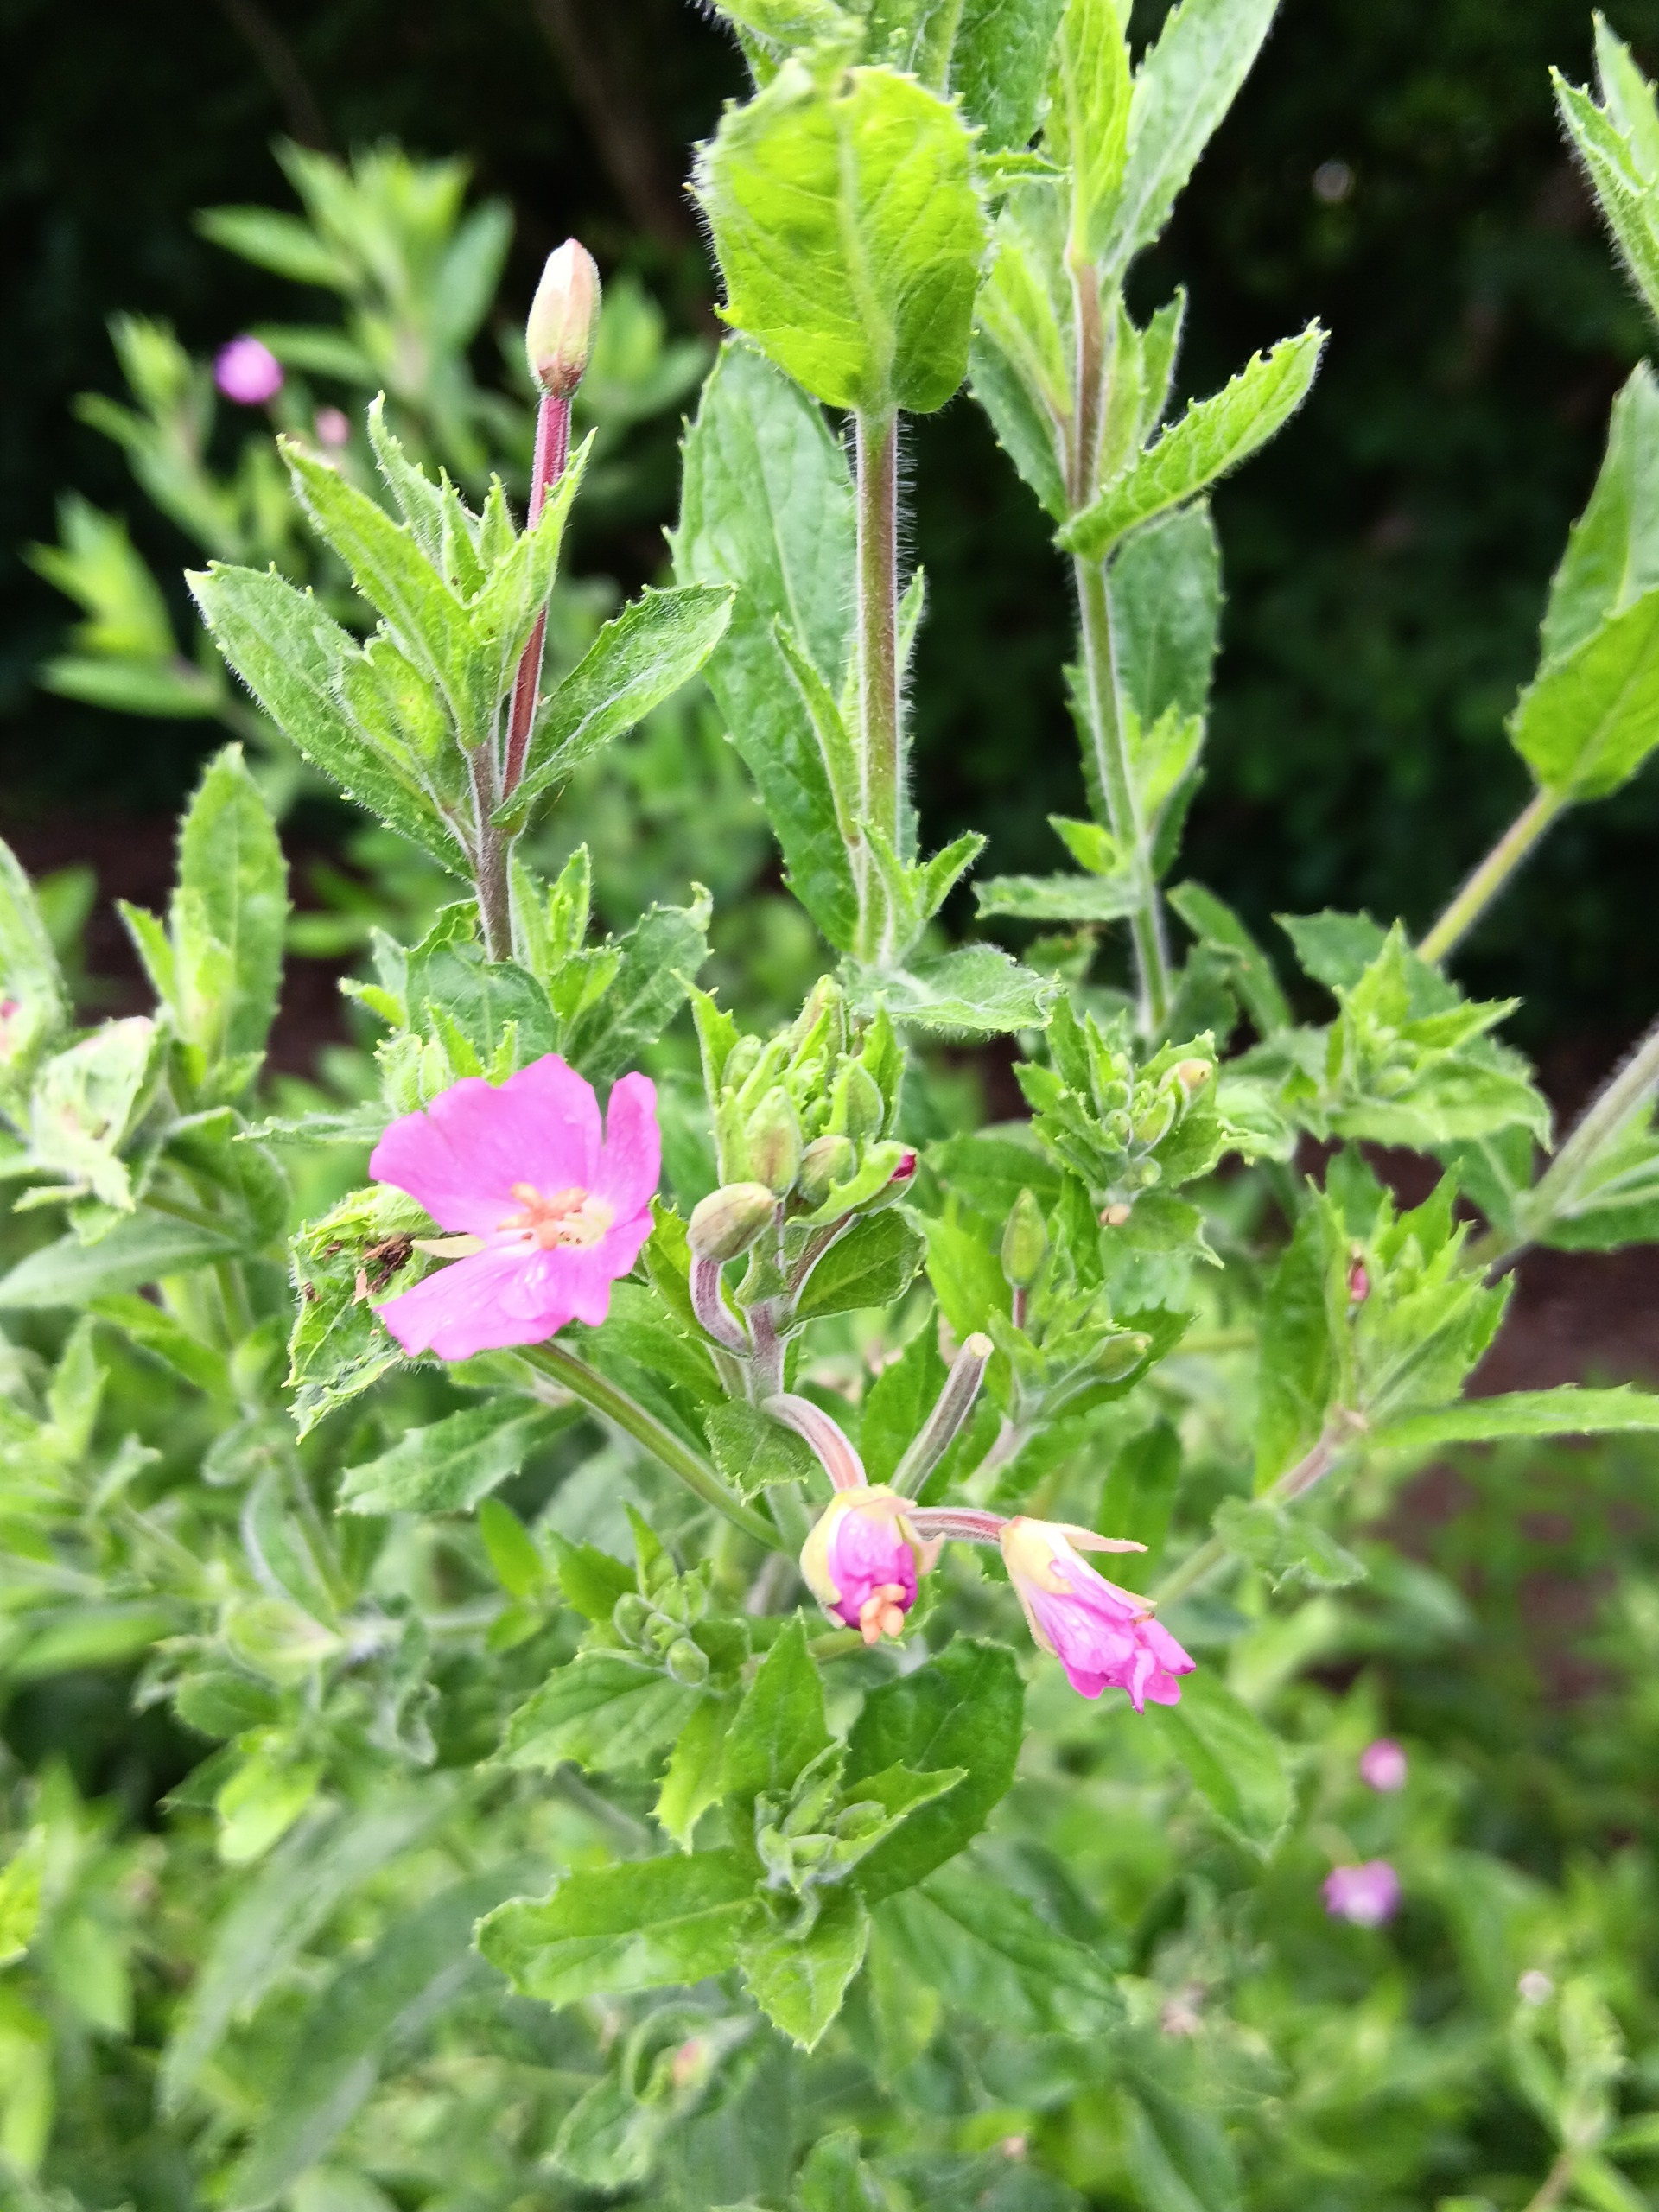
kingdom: Plantae
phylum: Tracheophyta
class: Magnoliopsida
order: Myrtales
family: Onagraceae
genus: Epilobium
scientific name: Epilobium hirsutum
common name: Lådden dueurt
